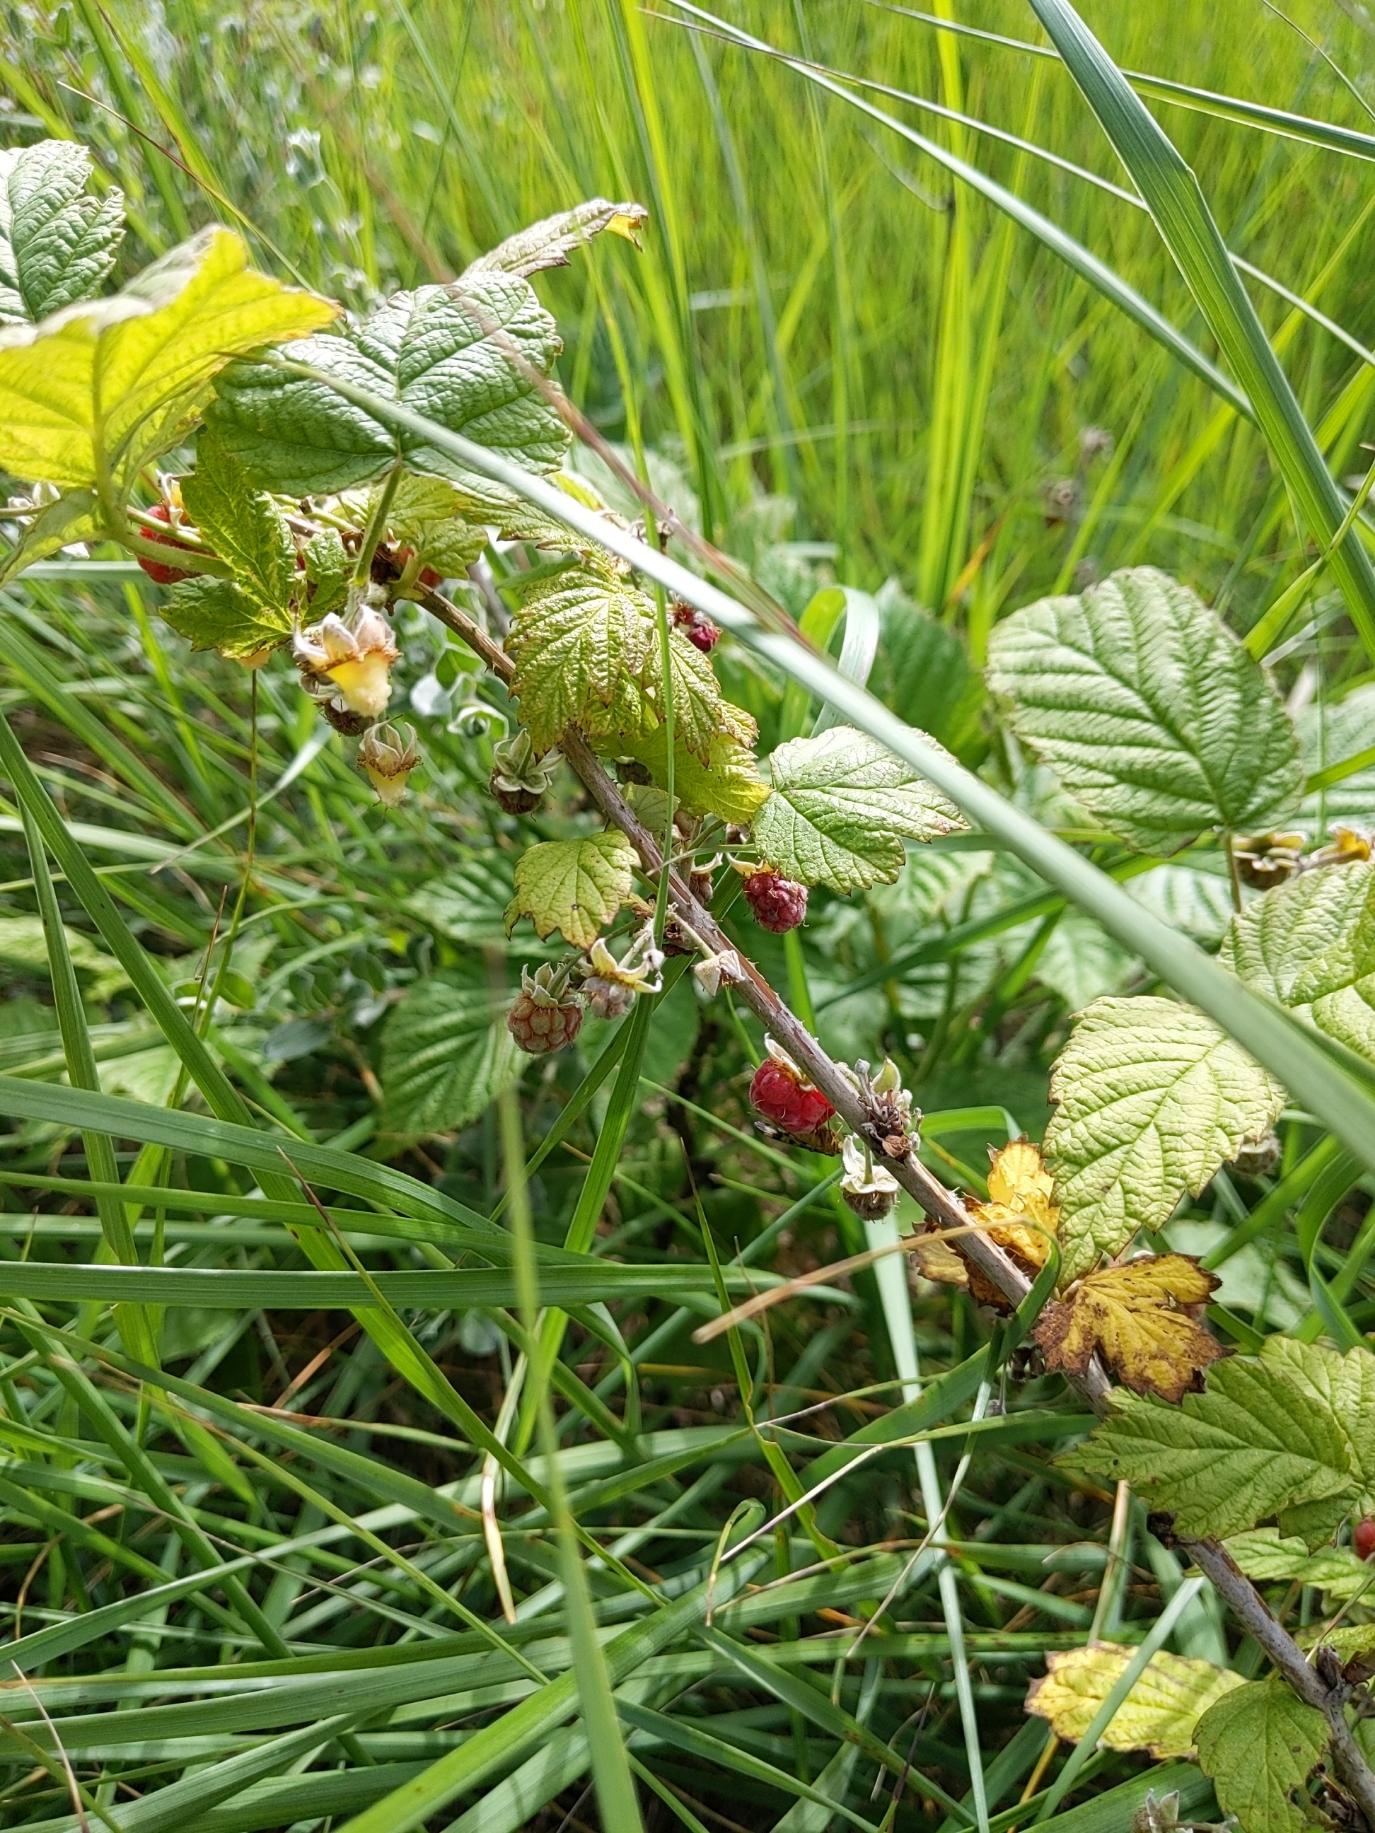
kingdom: Plantae
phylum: Tracheophyta
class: Magnoliopsida
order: Rosales
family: Rosaceae
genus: Rubus
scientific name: Rubus idaeus
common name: Hindbær
